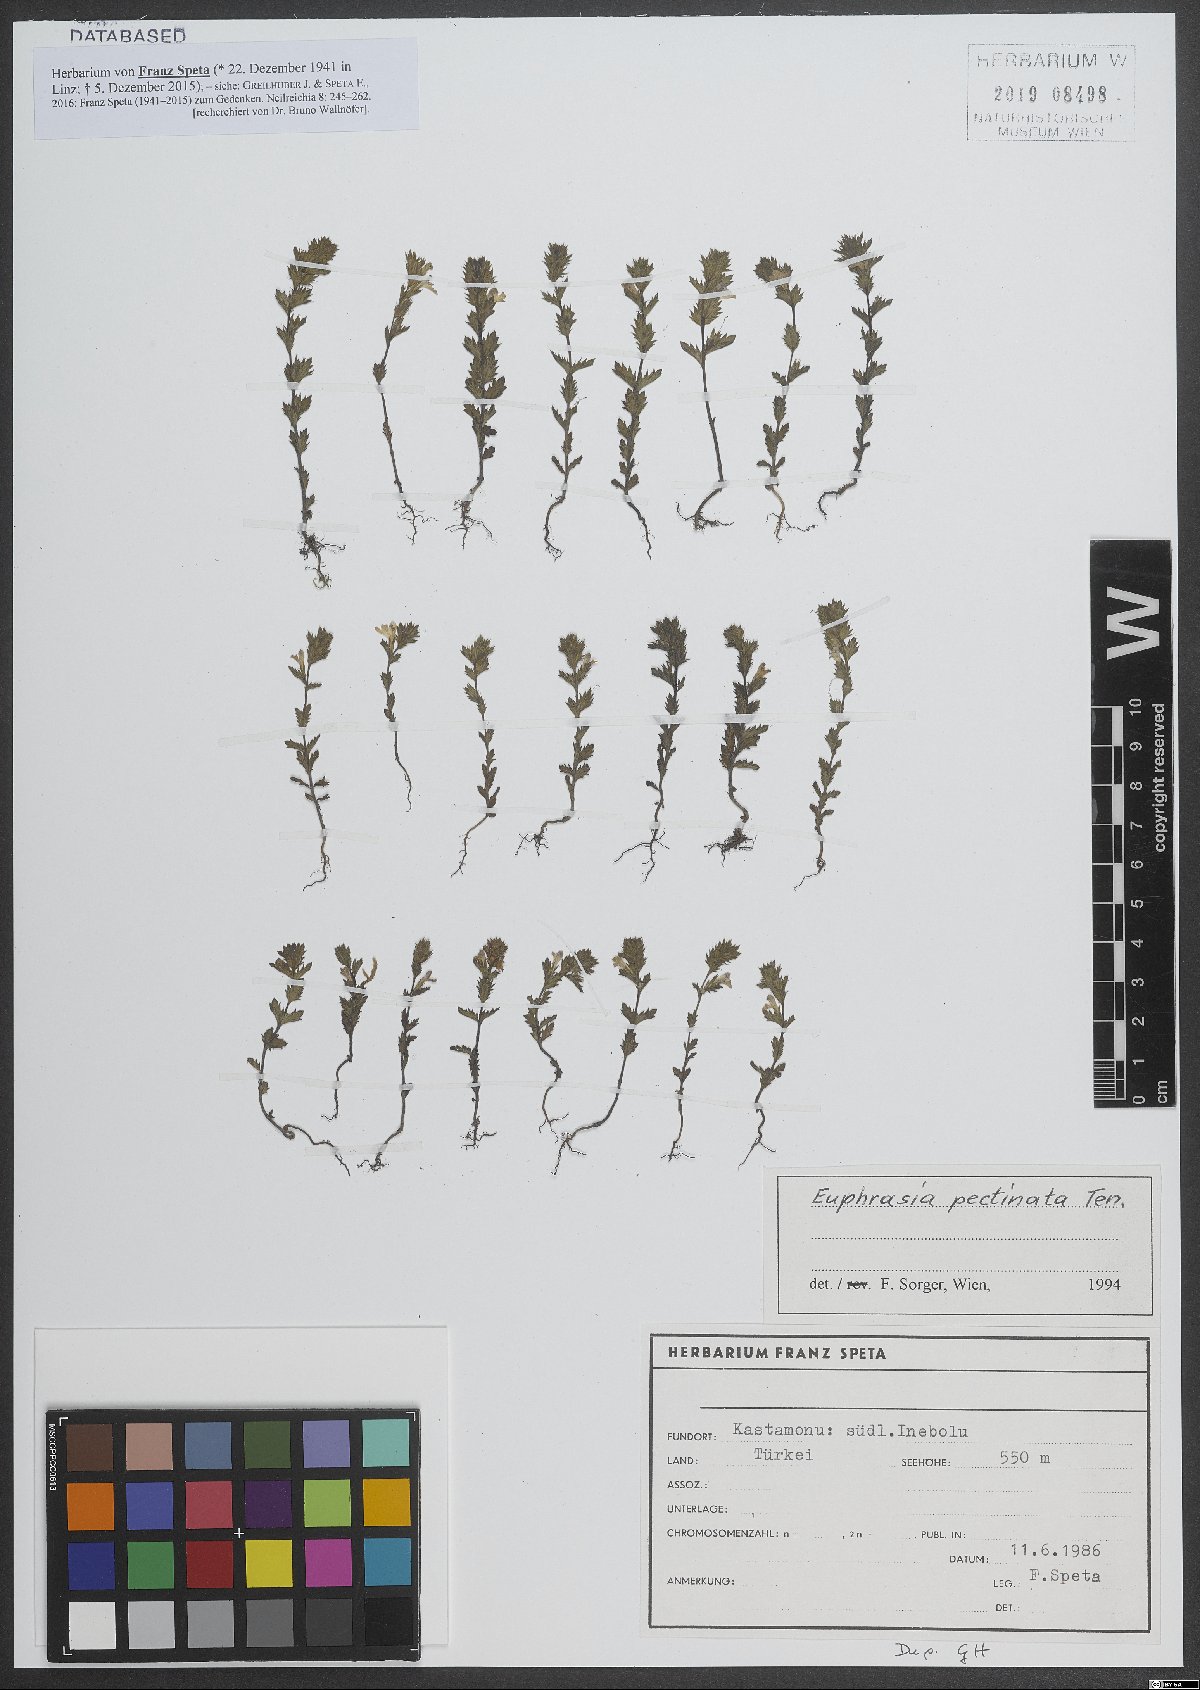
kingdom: Plantae
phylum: Tracheophyta
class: Magnoliopsida
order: Lamiales
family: Orobanchaceae
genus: Euphrasia
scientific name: Euphrasia pectinata
